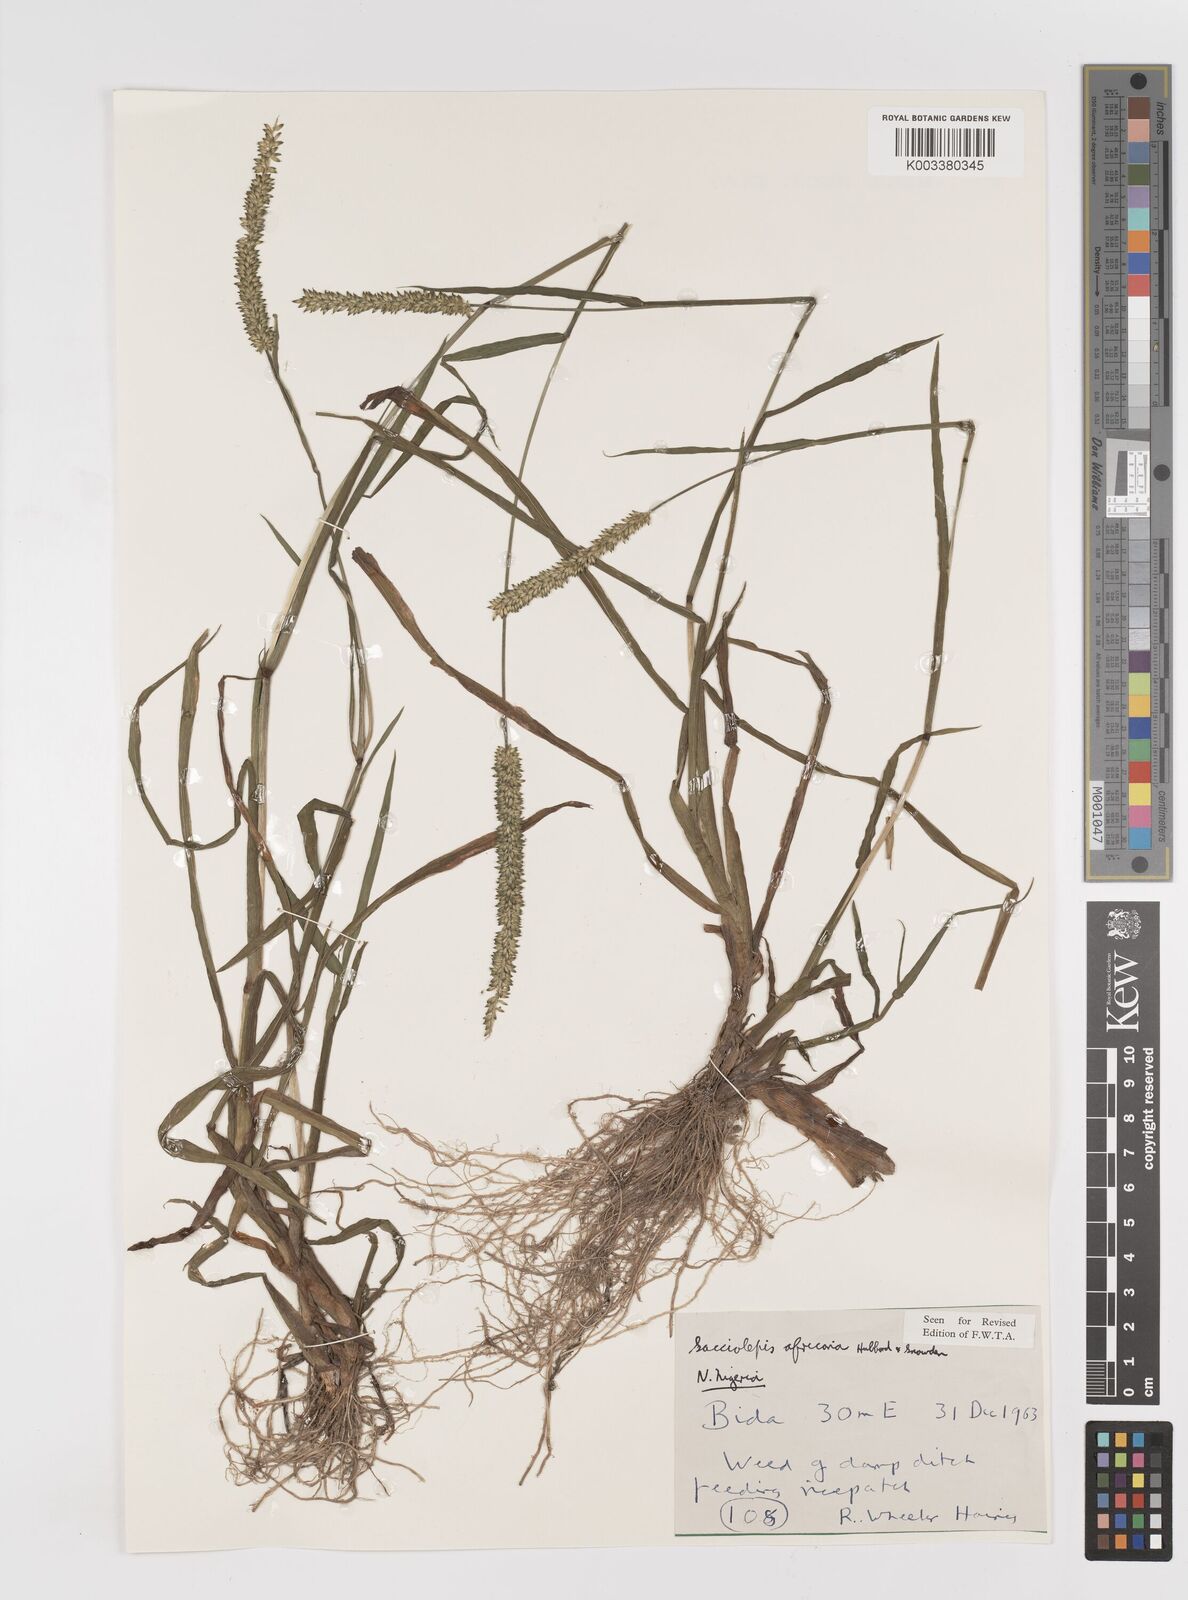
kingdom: Plantae
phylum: Tracheophyta
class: Liliopsida
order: Poales
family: Poaceae
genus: Sacciolepis
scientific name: Sacciolepis africana
